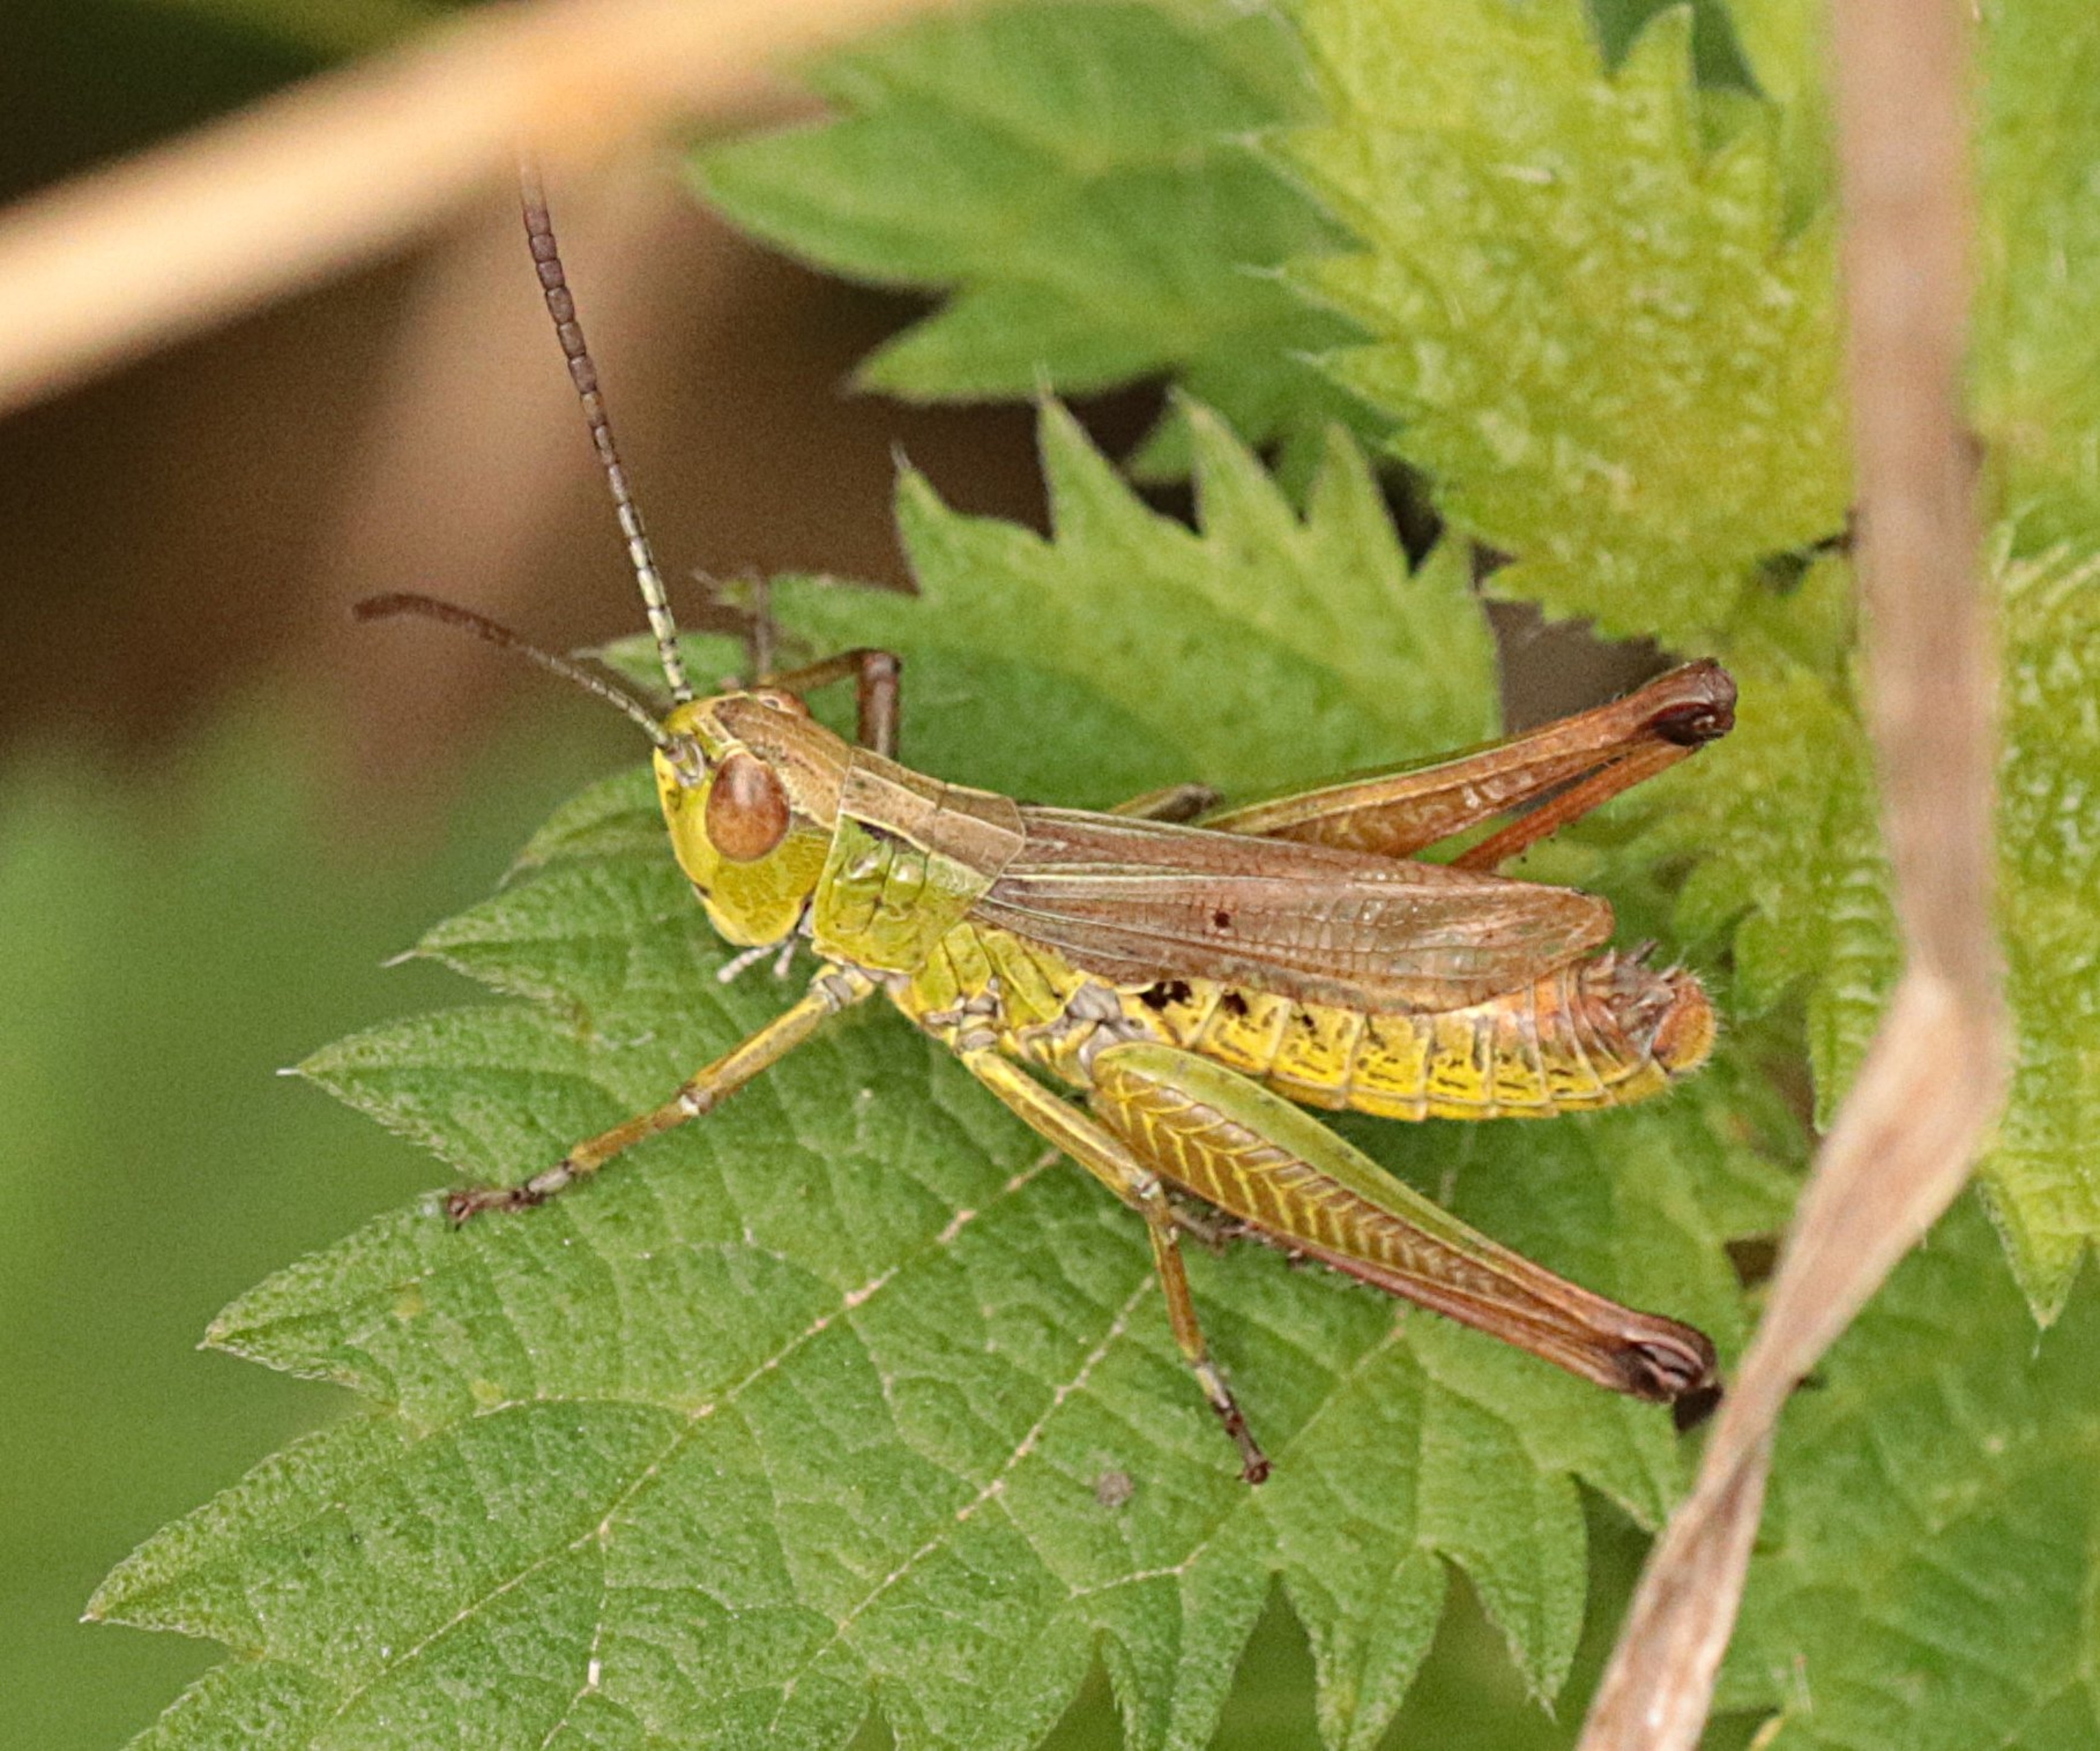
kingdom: Animalia
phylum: Arthropoda
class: Insecta
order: Orthoptera
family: Acrididae
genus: Pseudochorthippus
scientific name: Pseudochorthippus parallelus
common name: Enggræshoppe
